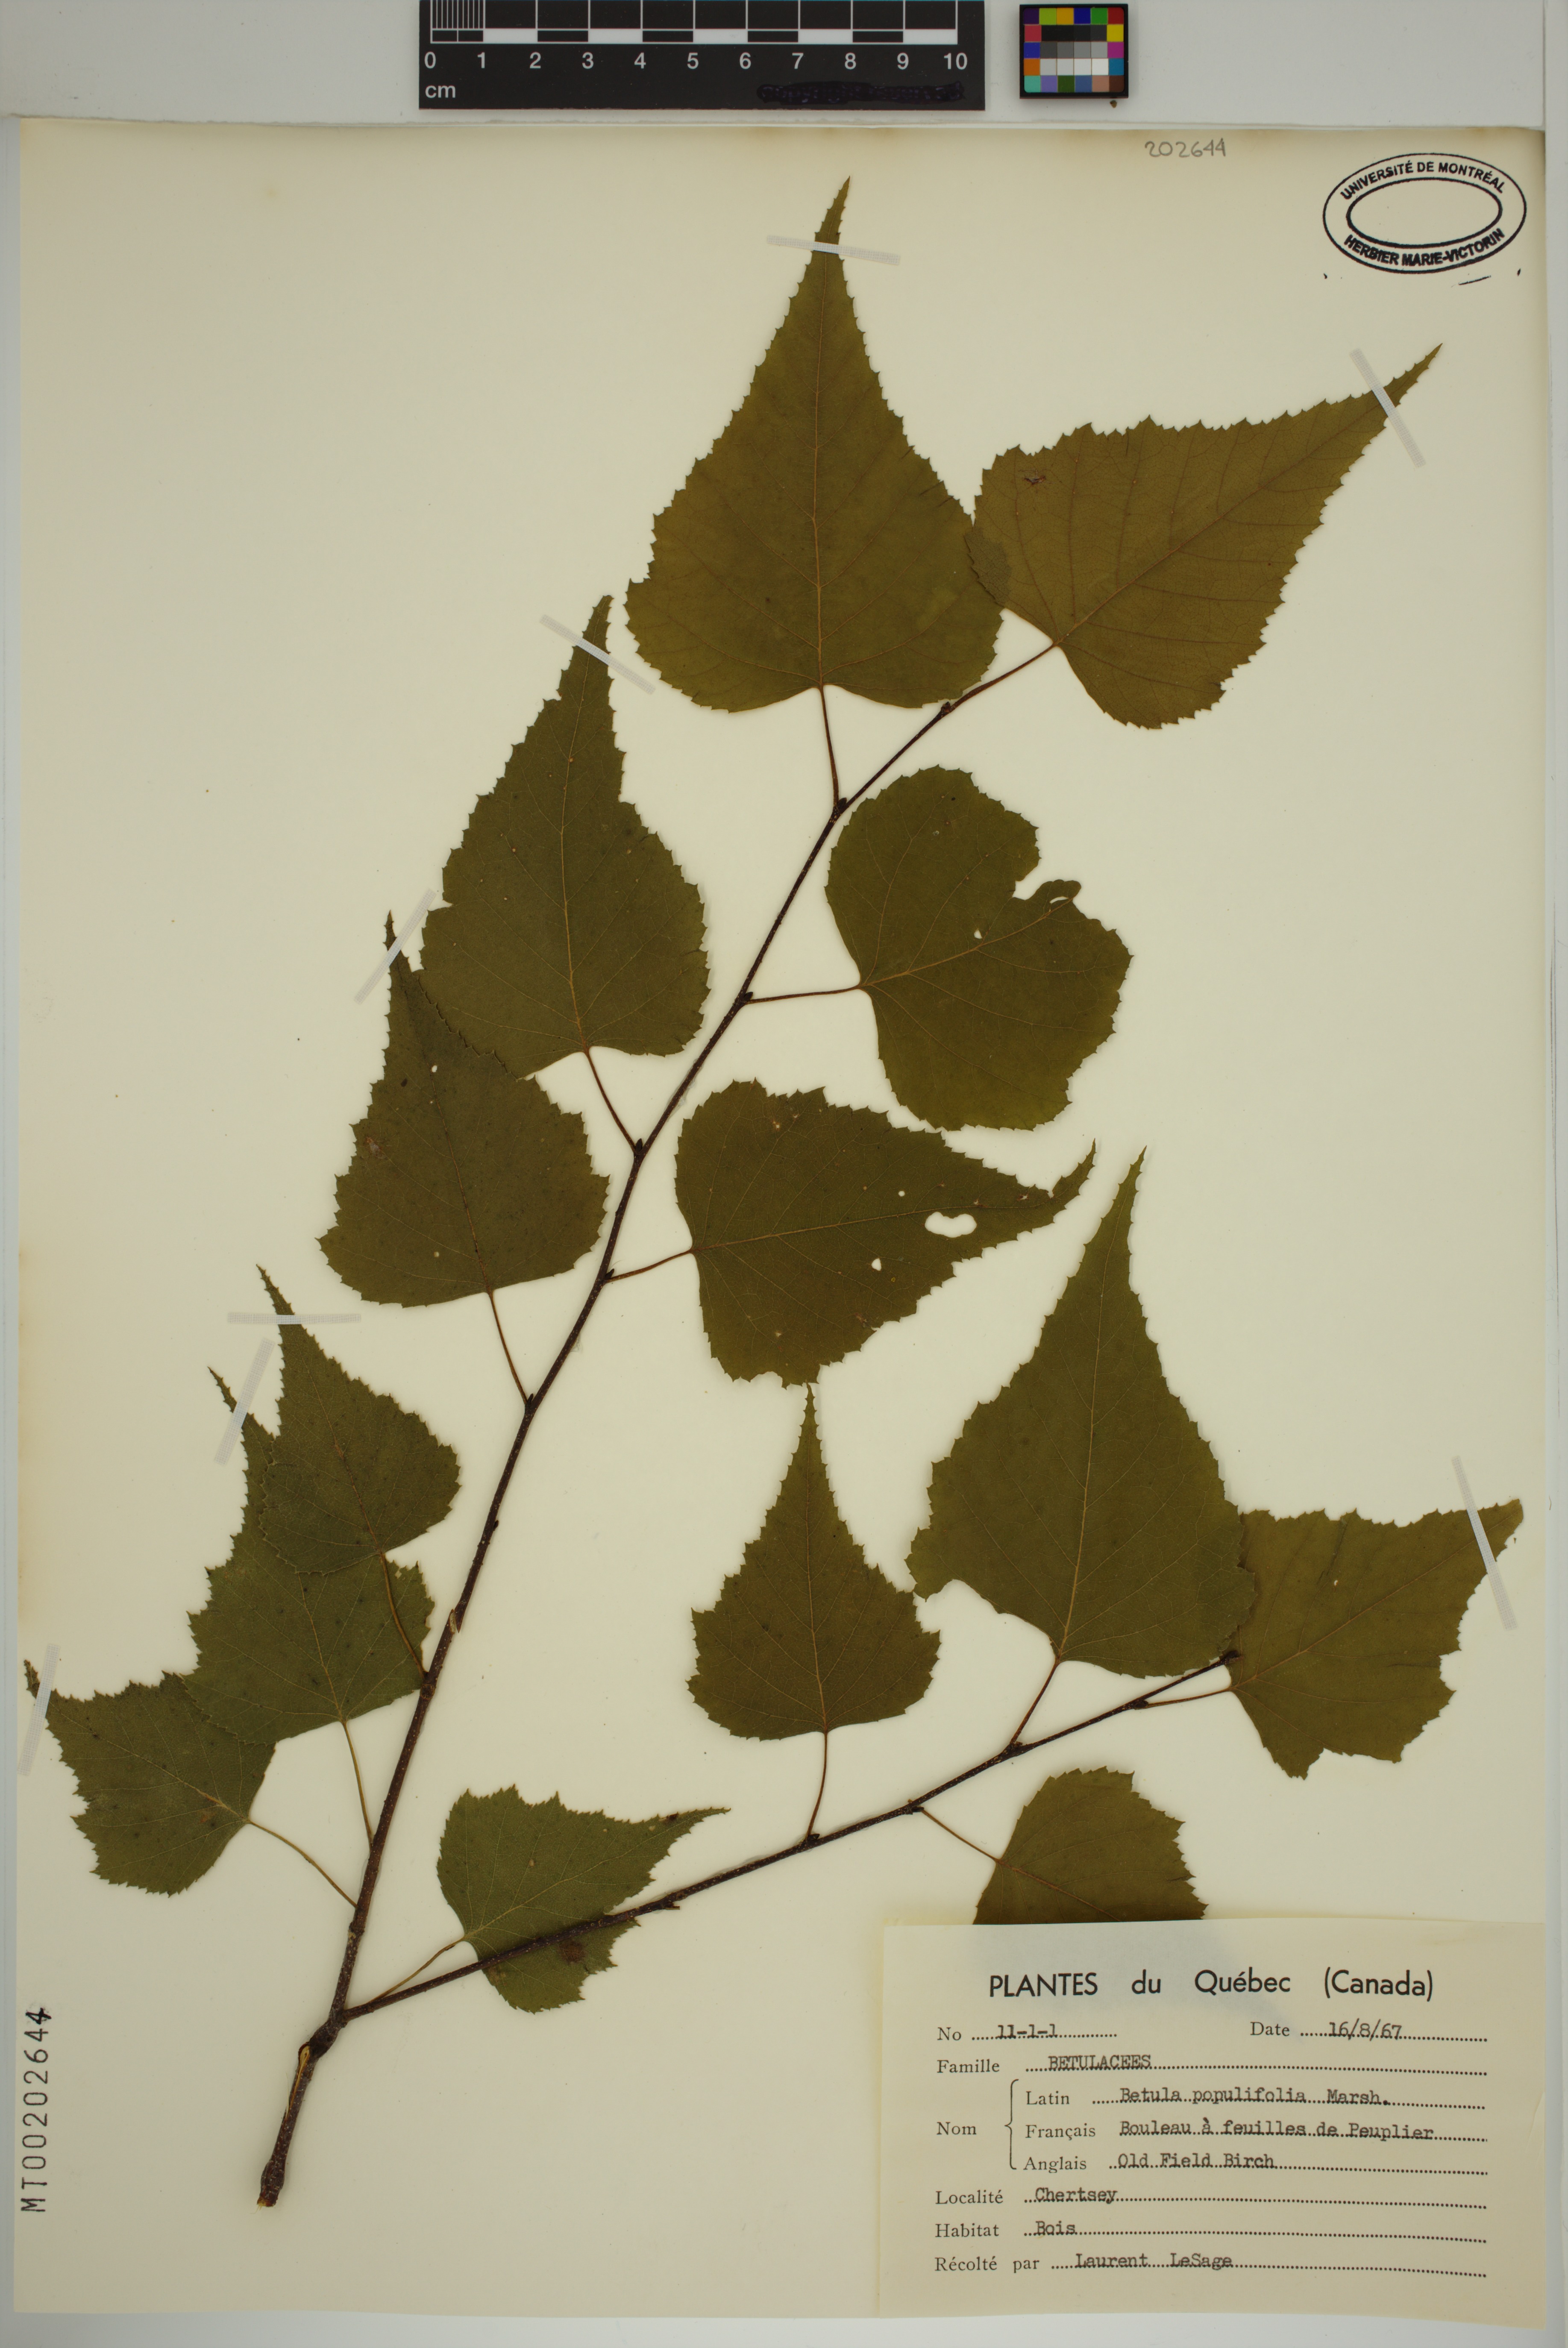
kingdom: Plantae
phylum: Tracheophyta
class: Magnoliopsida
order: Fagales
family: Betulaceae
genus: Betula
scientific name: Betula populifolia
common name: Fire birch
